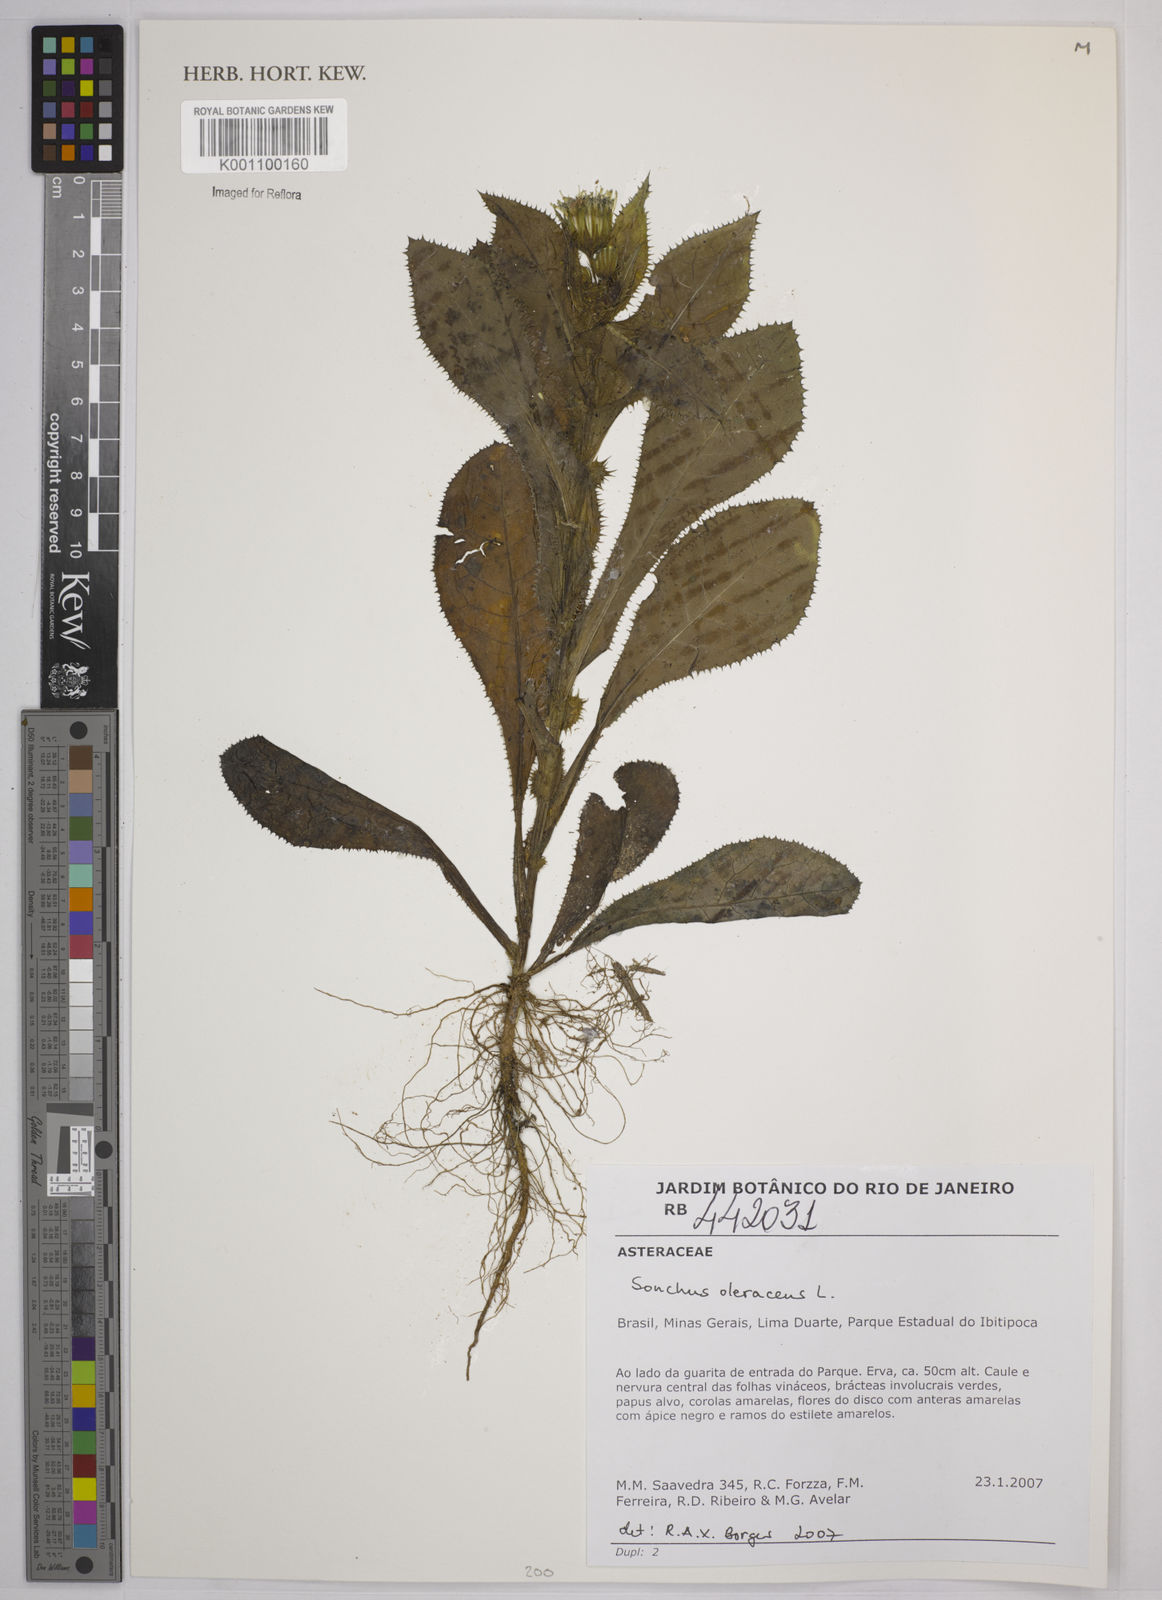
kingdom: Plantae
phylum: Tracheophyta
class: Magnoliopsida
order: Asterales
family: Asteraceae
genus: Sonchus
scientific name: Sonchus asper
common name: Prickly sow-thistle
